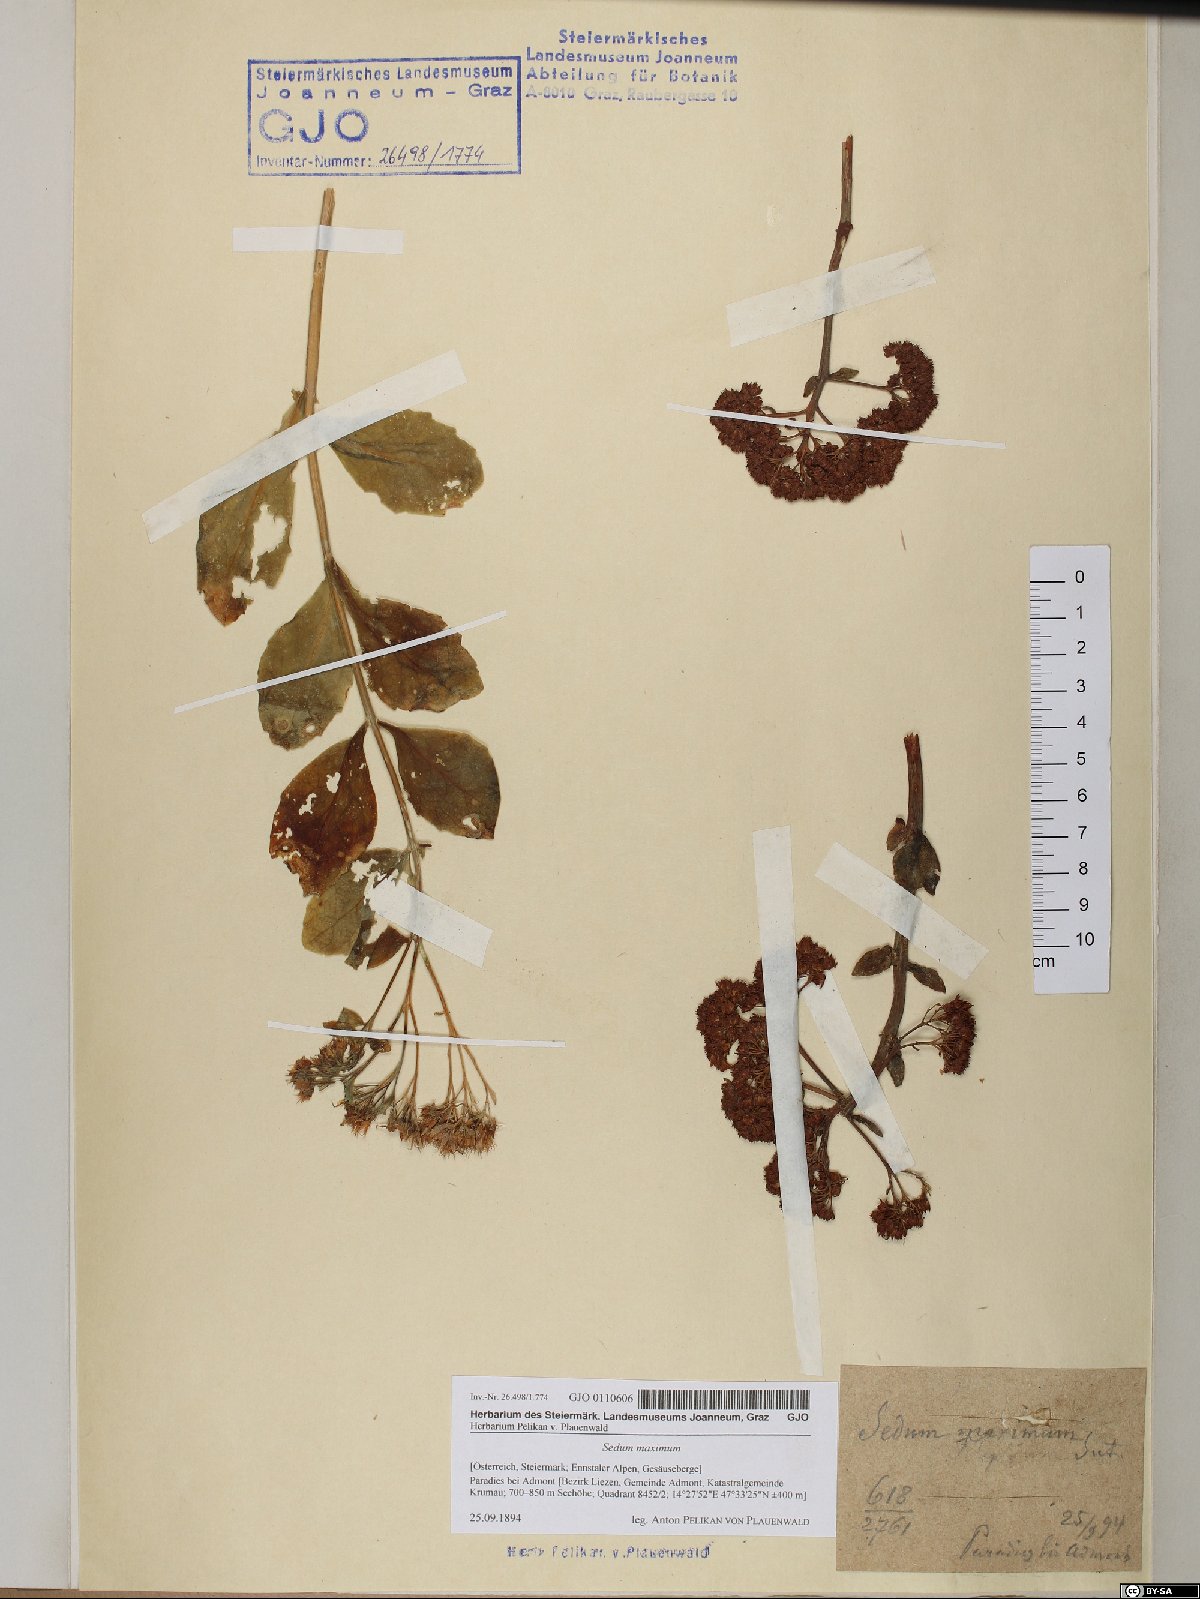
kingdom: Plantae
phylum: Tracheophyta
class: Magnoliopsida
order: Saxifragales
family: Crassulaceae
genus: Hylotelephium
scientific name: Hylotelephium maximum
